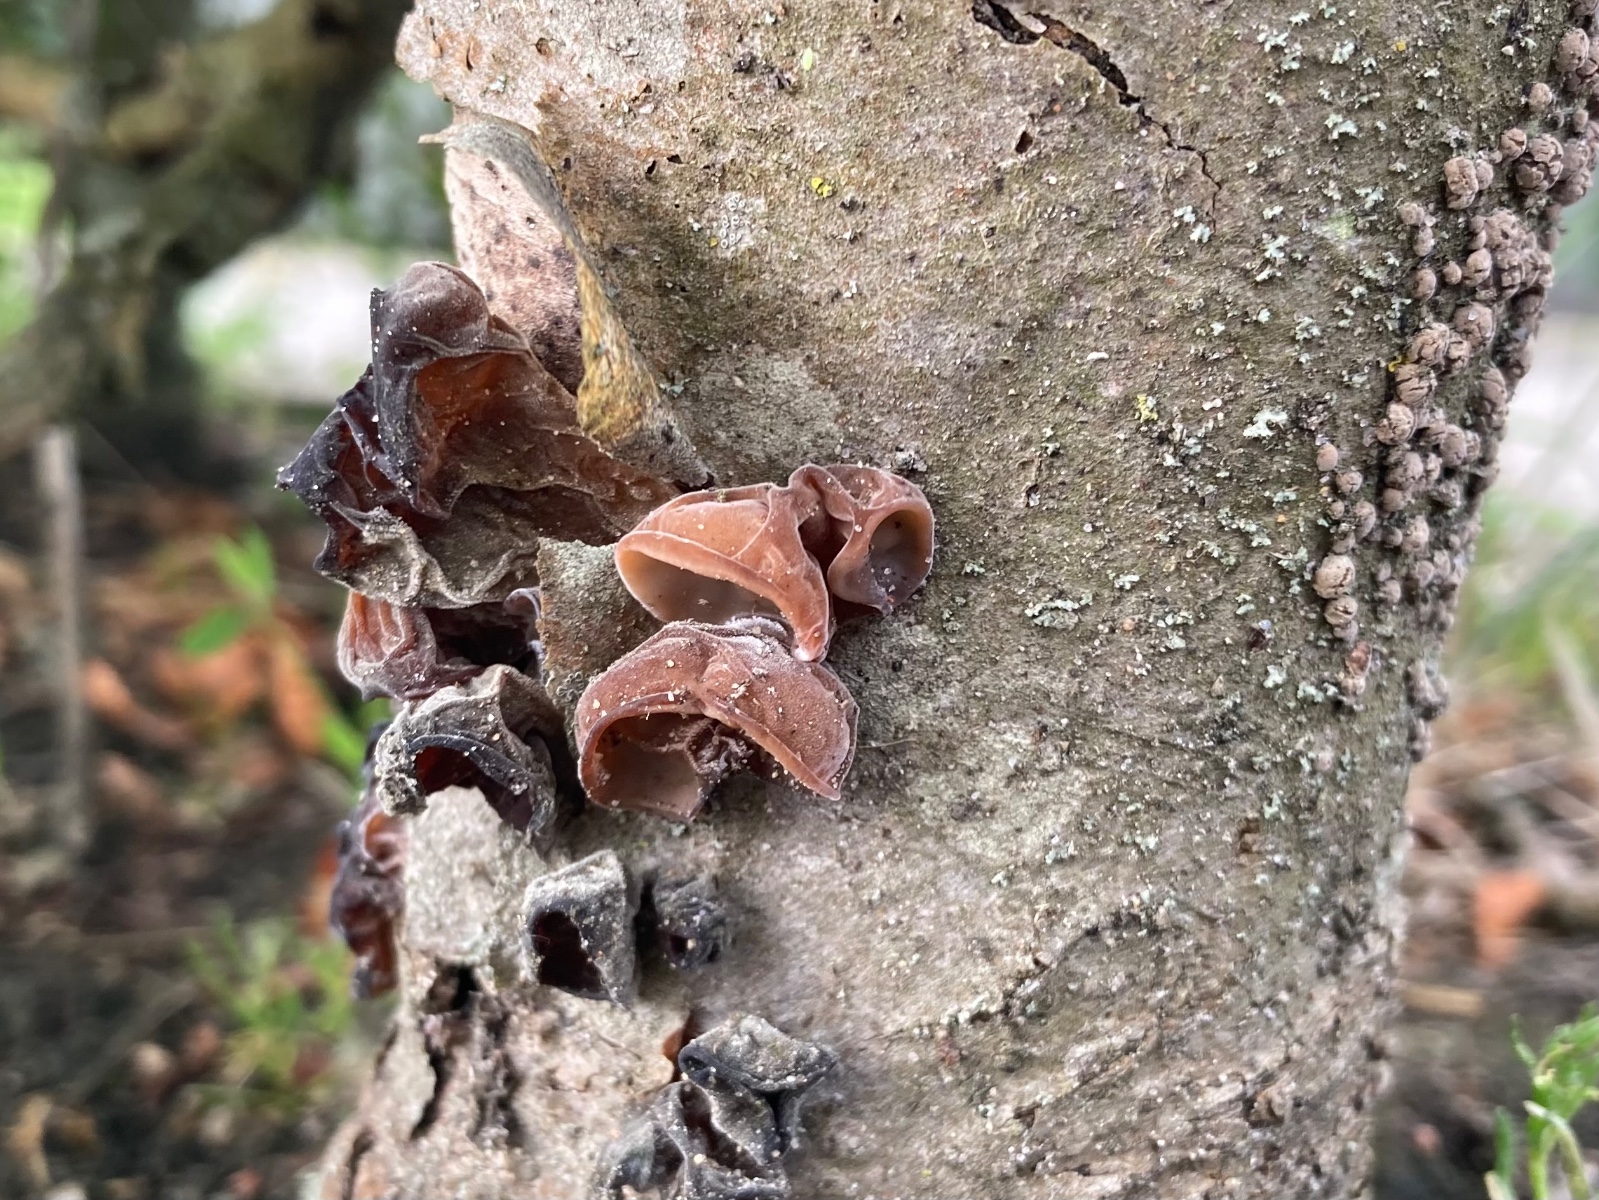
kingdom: Fungi
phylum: Basidiomycota
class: Agaricomycetes
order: Auriculariales
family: Auriculariaceae
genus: Auricularia
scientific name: Auricularia auricula-judae
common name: almindelig judasøre
